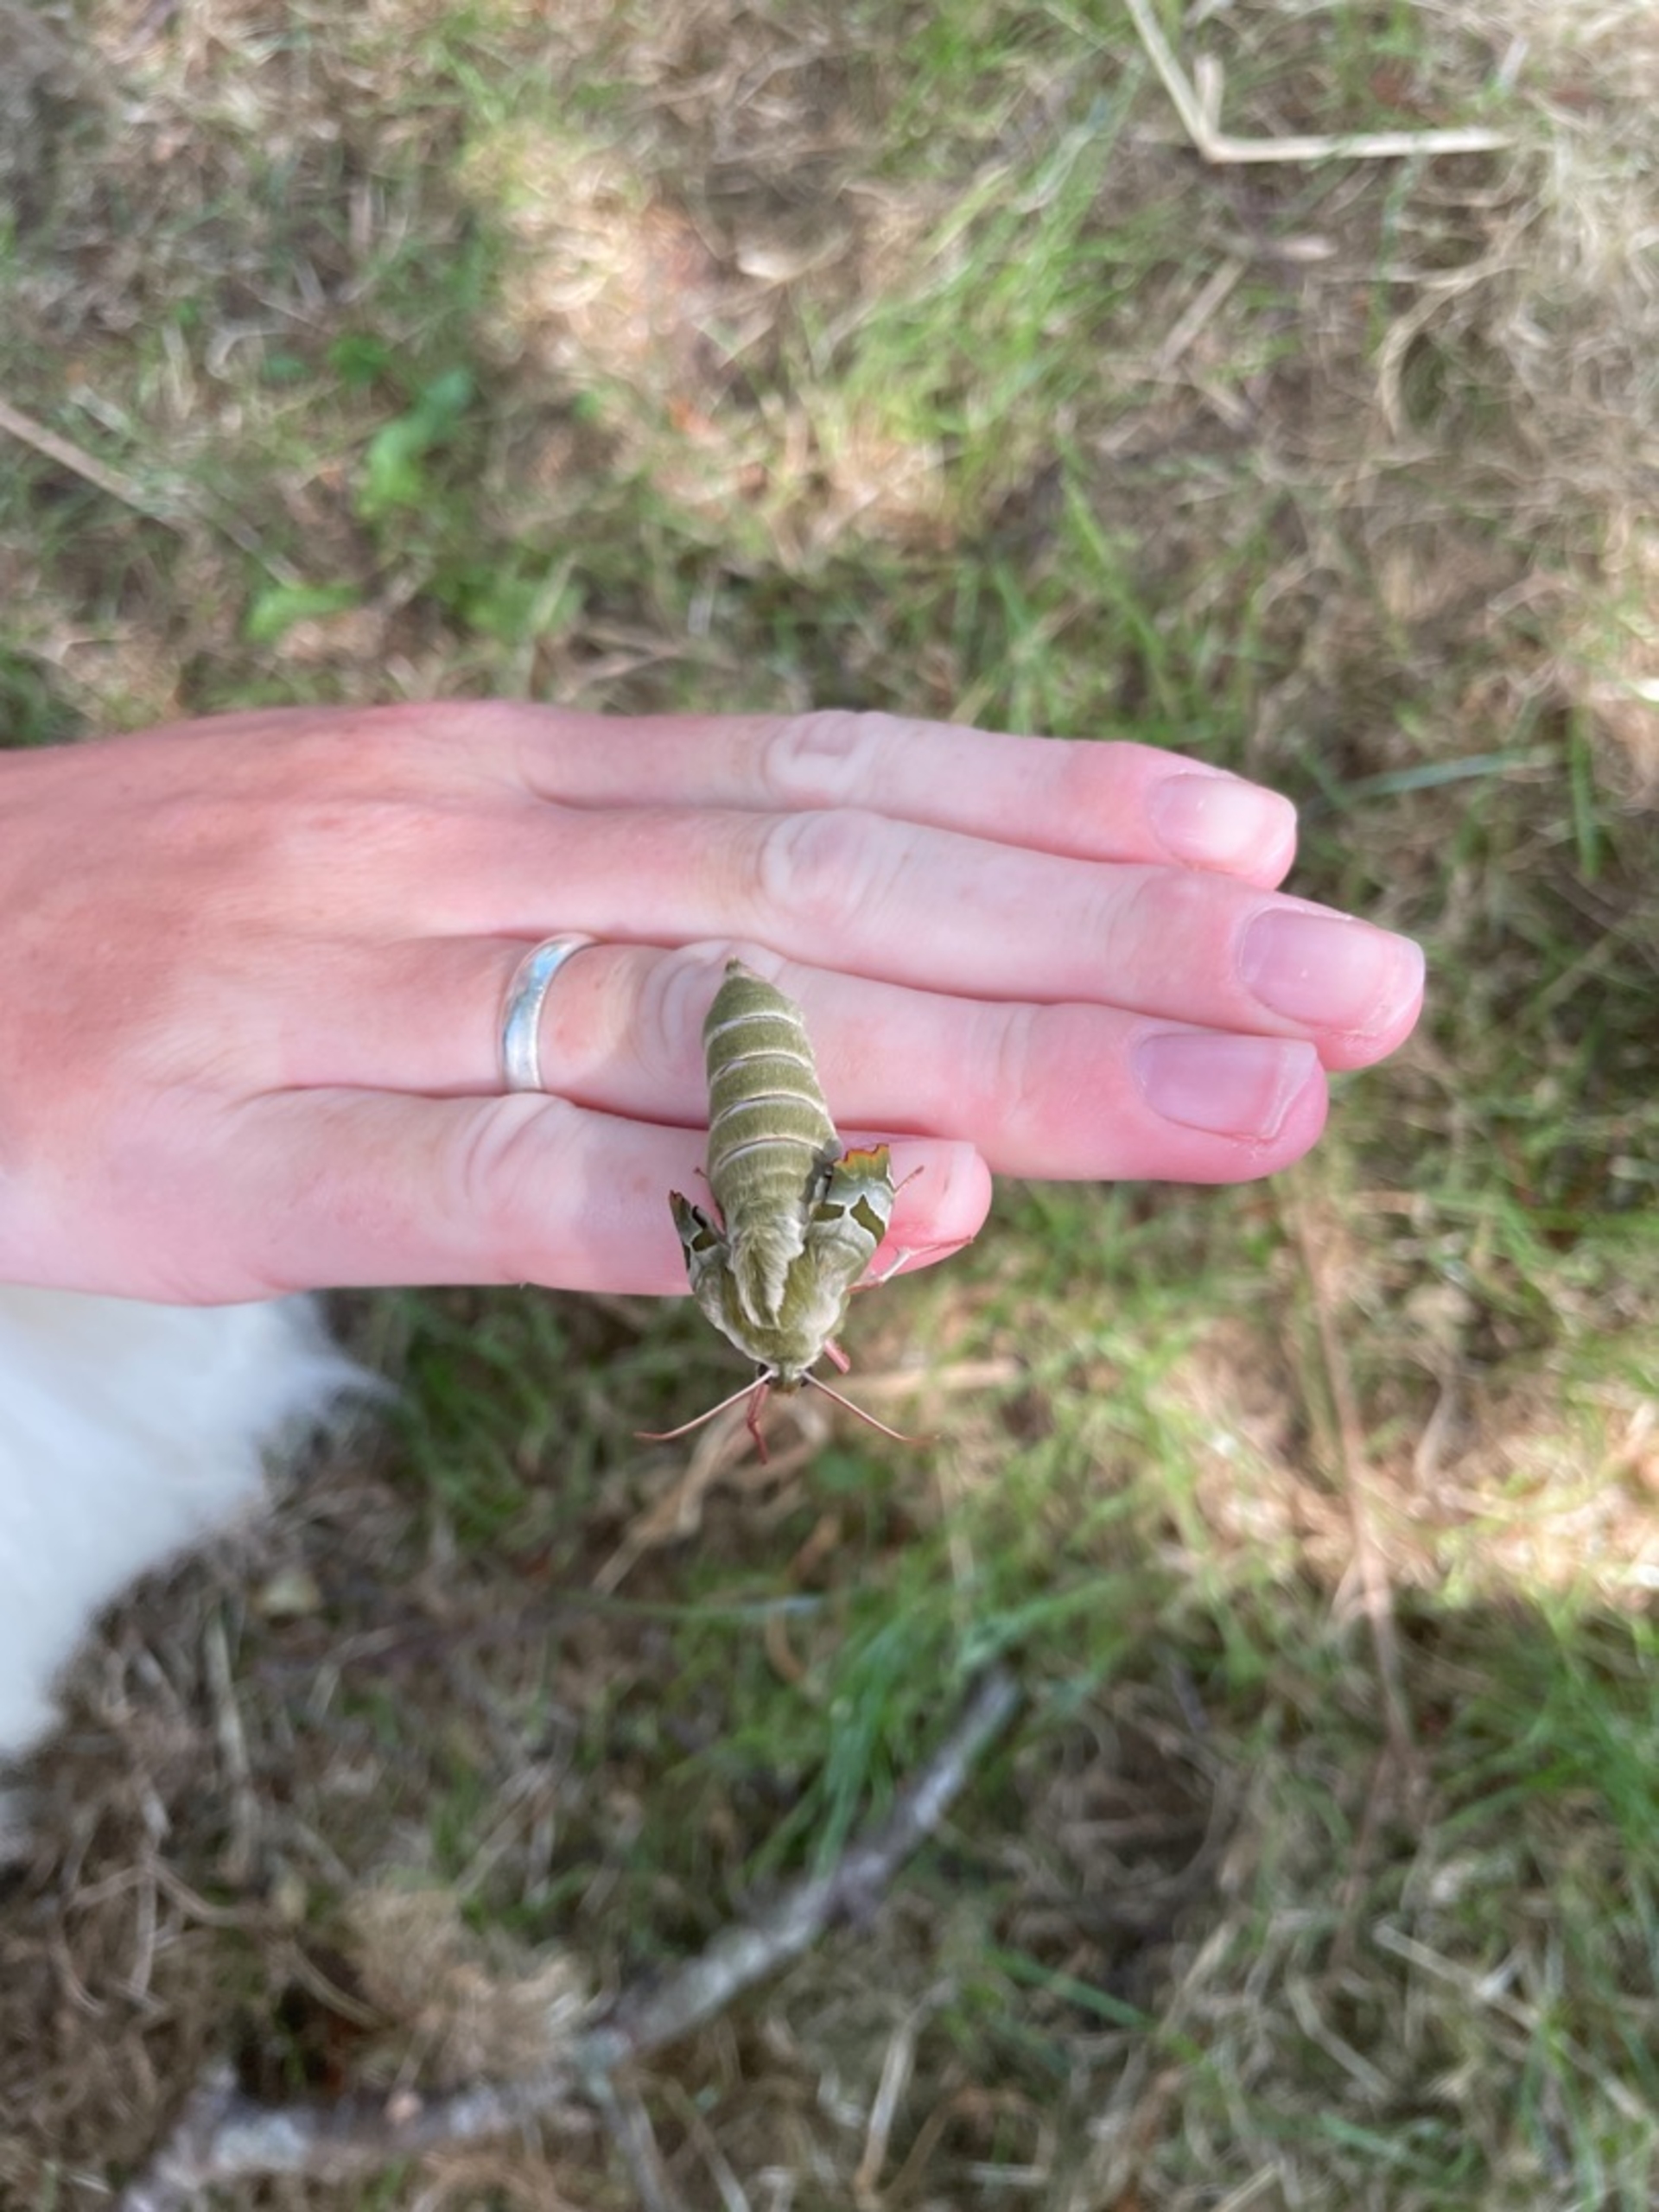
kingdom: Animalia
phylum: Arthropoda
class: Insecta
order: Lepidoptera
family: Sphingidae
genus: Mimas
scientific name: Mimas tiliae
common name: Lindesværmer
